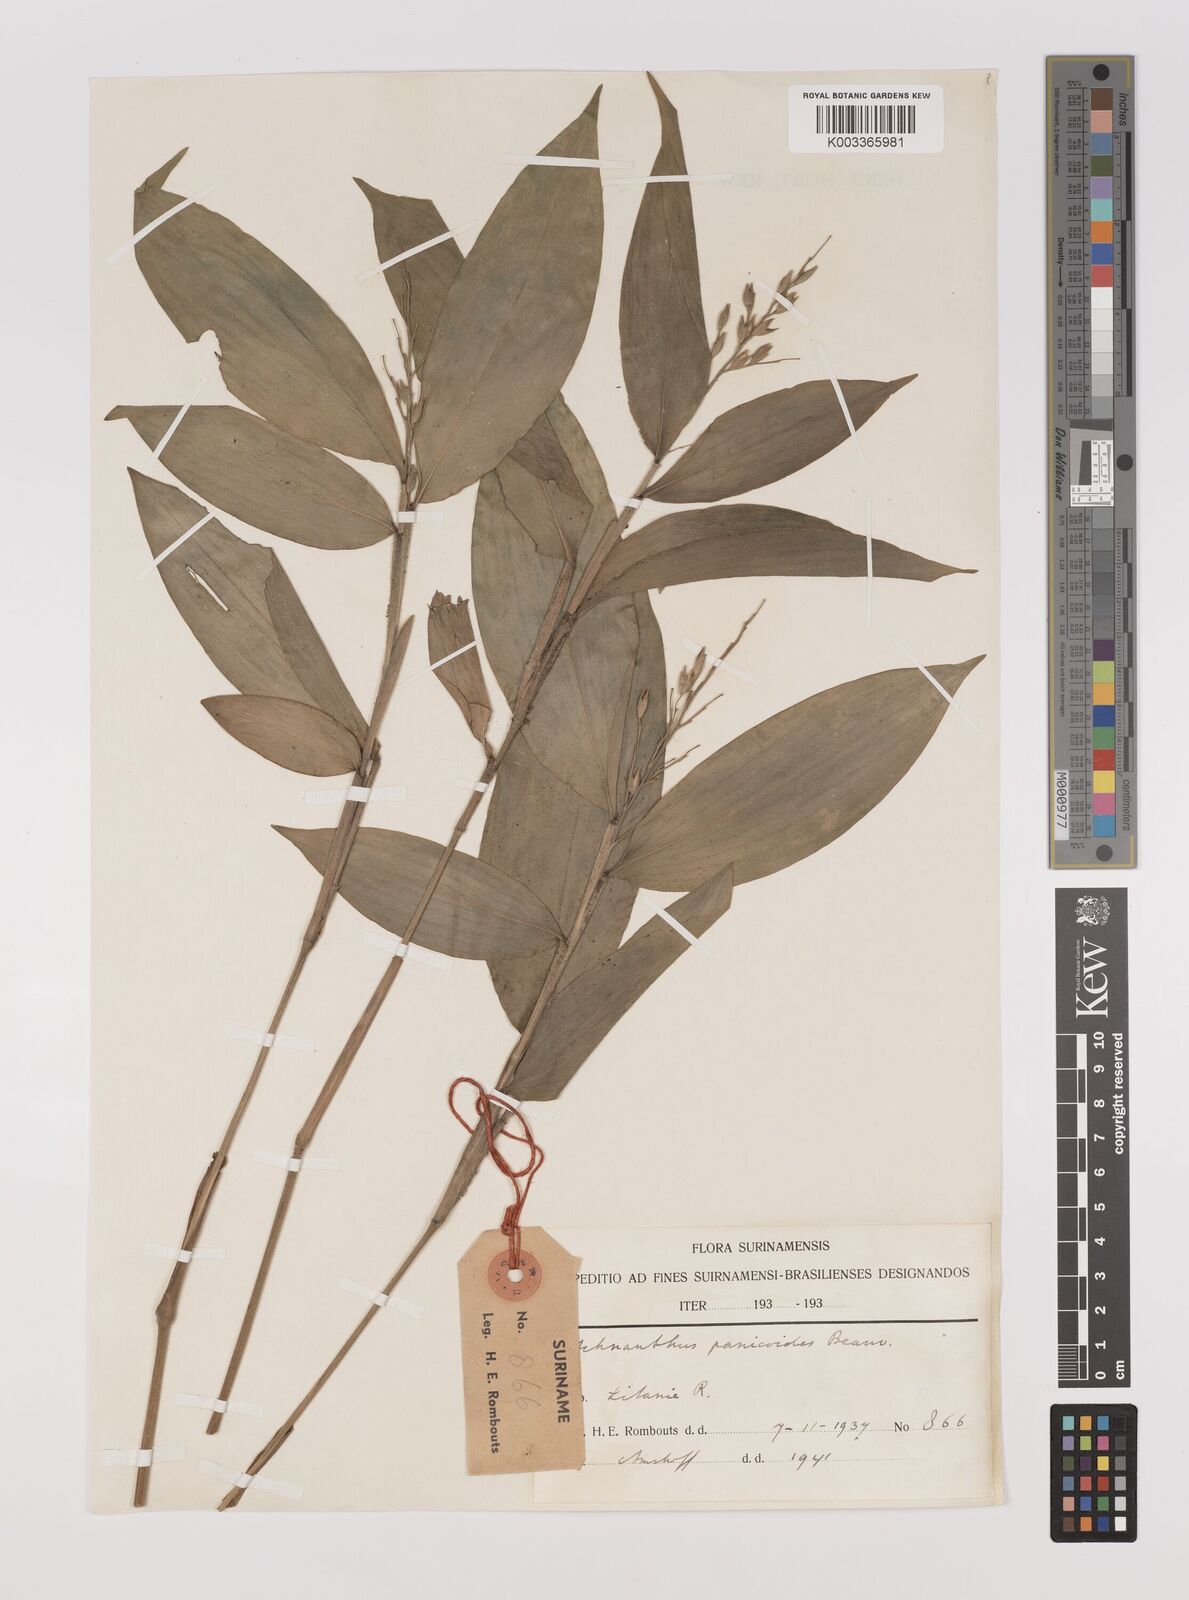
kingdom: Plantae
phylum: Tracheophyta
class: Liliopsida
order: Poales
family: Poaceae
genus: Ichnanthus
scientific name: Ichnanthus panicoides
